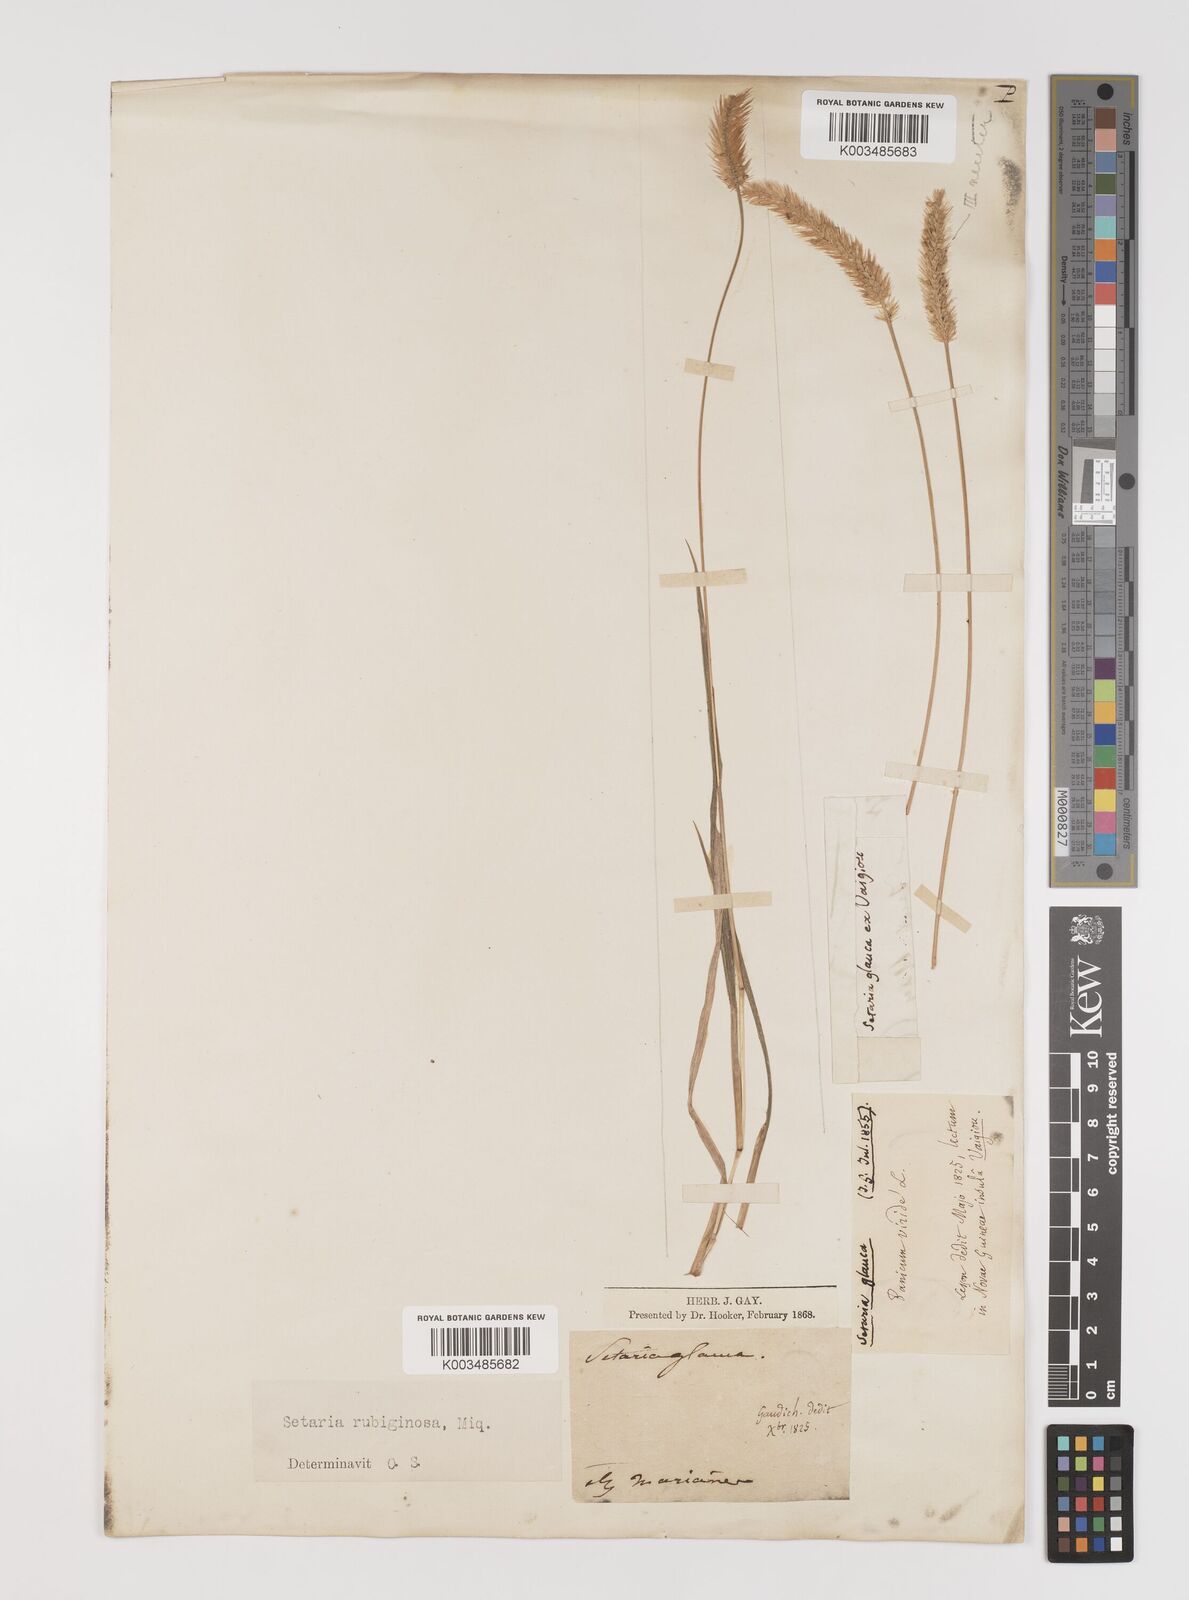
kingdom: Plantae
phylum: Tracheophyta
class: Liliopsida
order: Poales
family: Poaceae
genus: Setaria
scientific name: Setaria pumila
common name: Yellow bristle-grass
